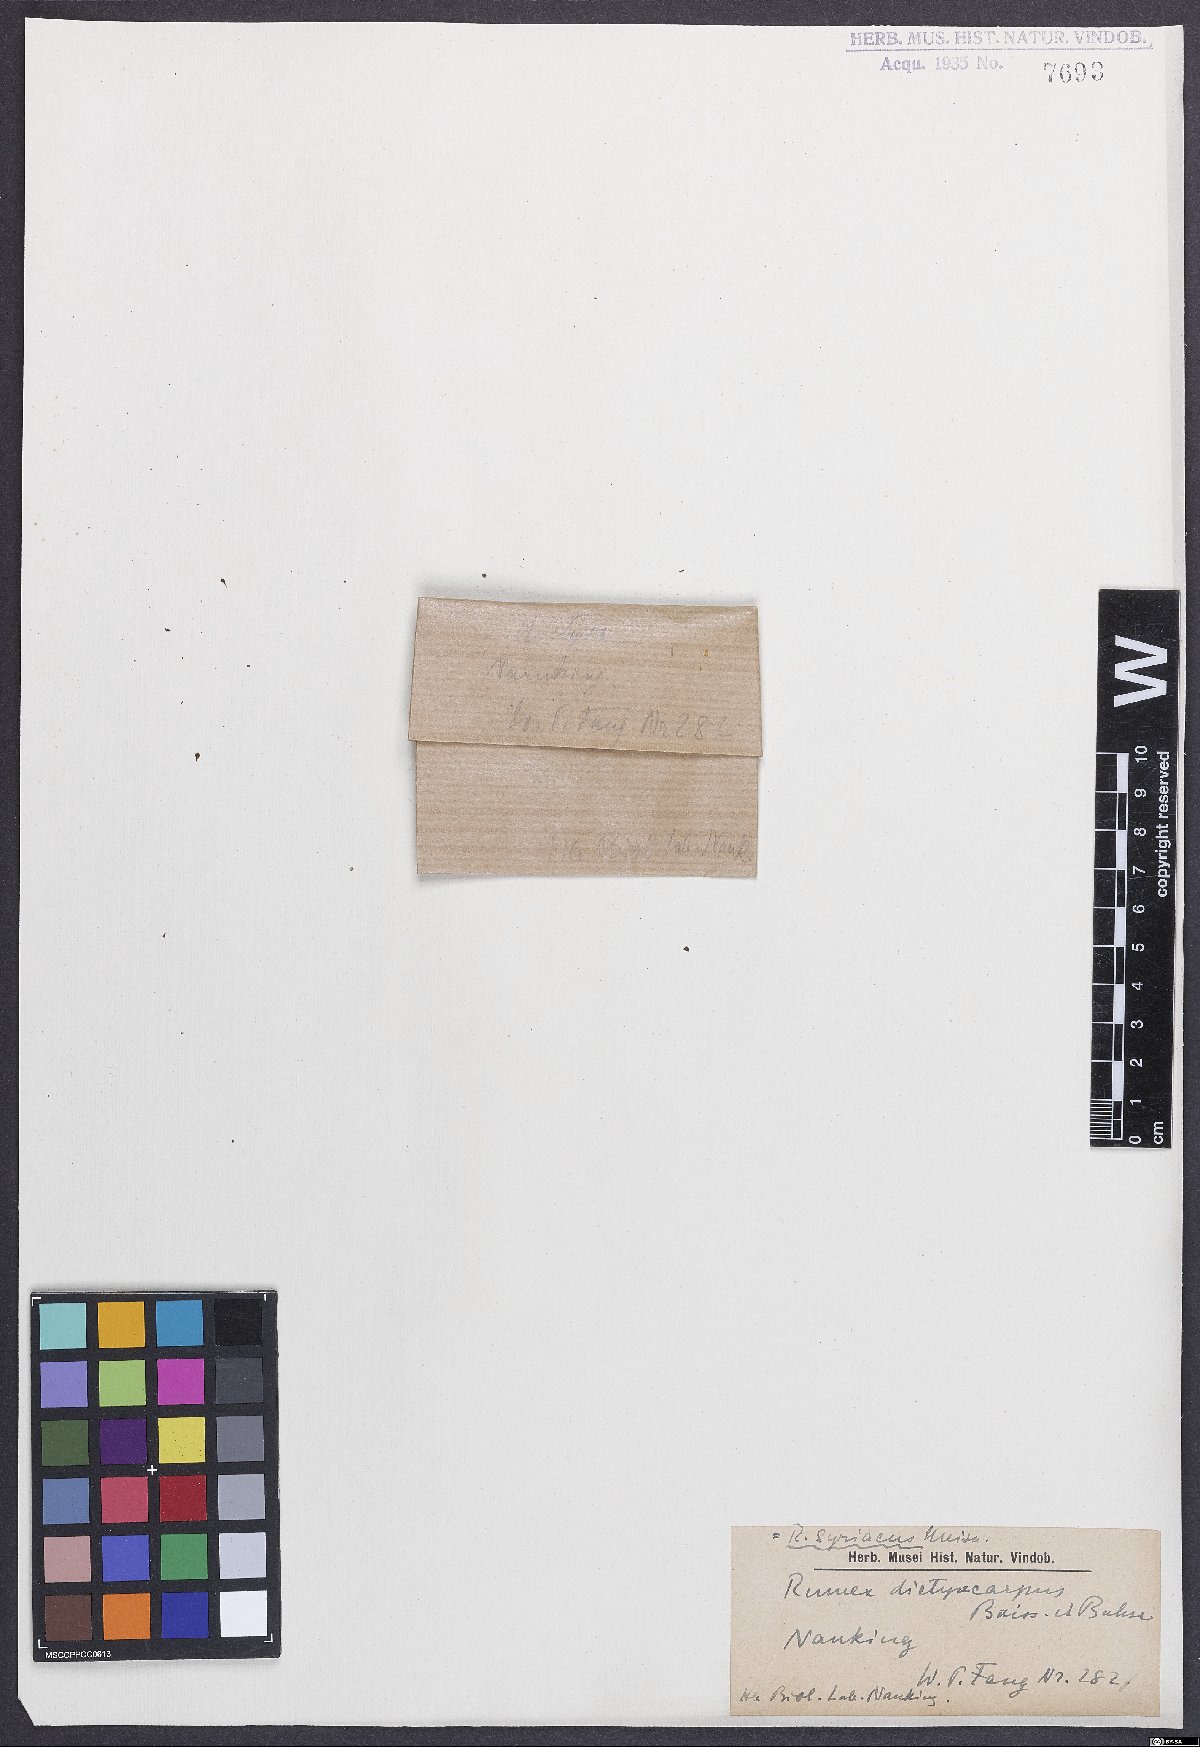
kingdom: Plantae
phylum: Tracheophyta
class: Magnoliopsida
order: Caryophyllales
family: Polygonaceae
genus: Rumex
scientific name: Rumex
